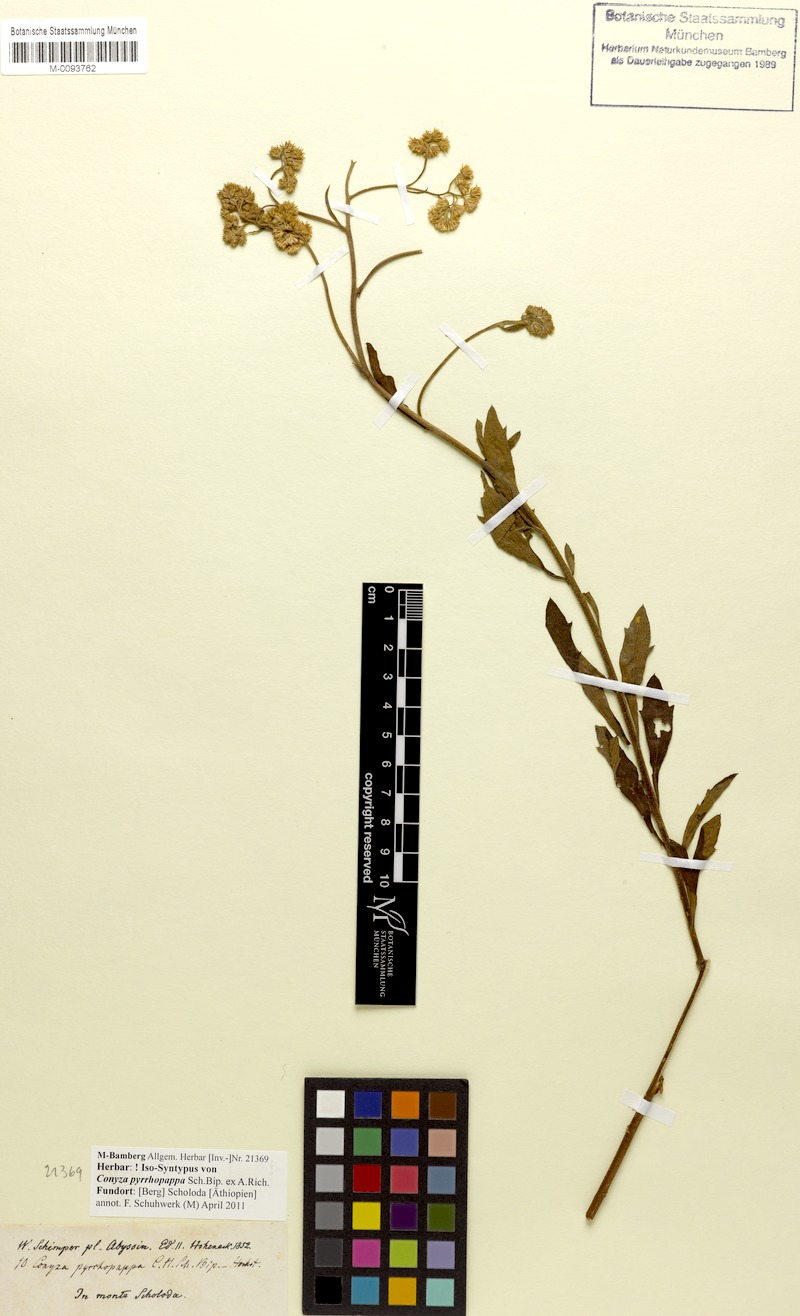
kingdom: Plantae
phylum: Tracheophyta
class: Magnoliopsida
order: Asterales
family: Asteraceae
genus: Microglossa
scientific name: Microglossa pyrrhopappa
